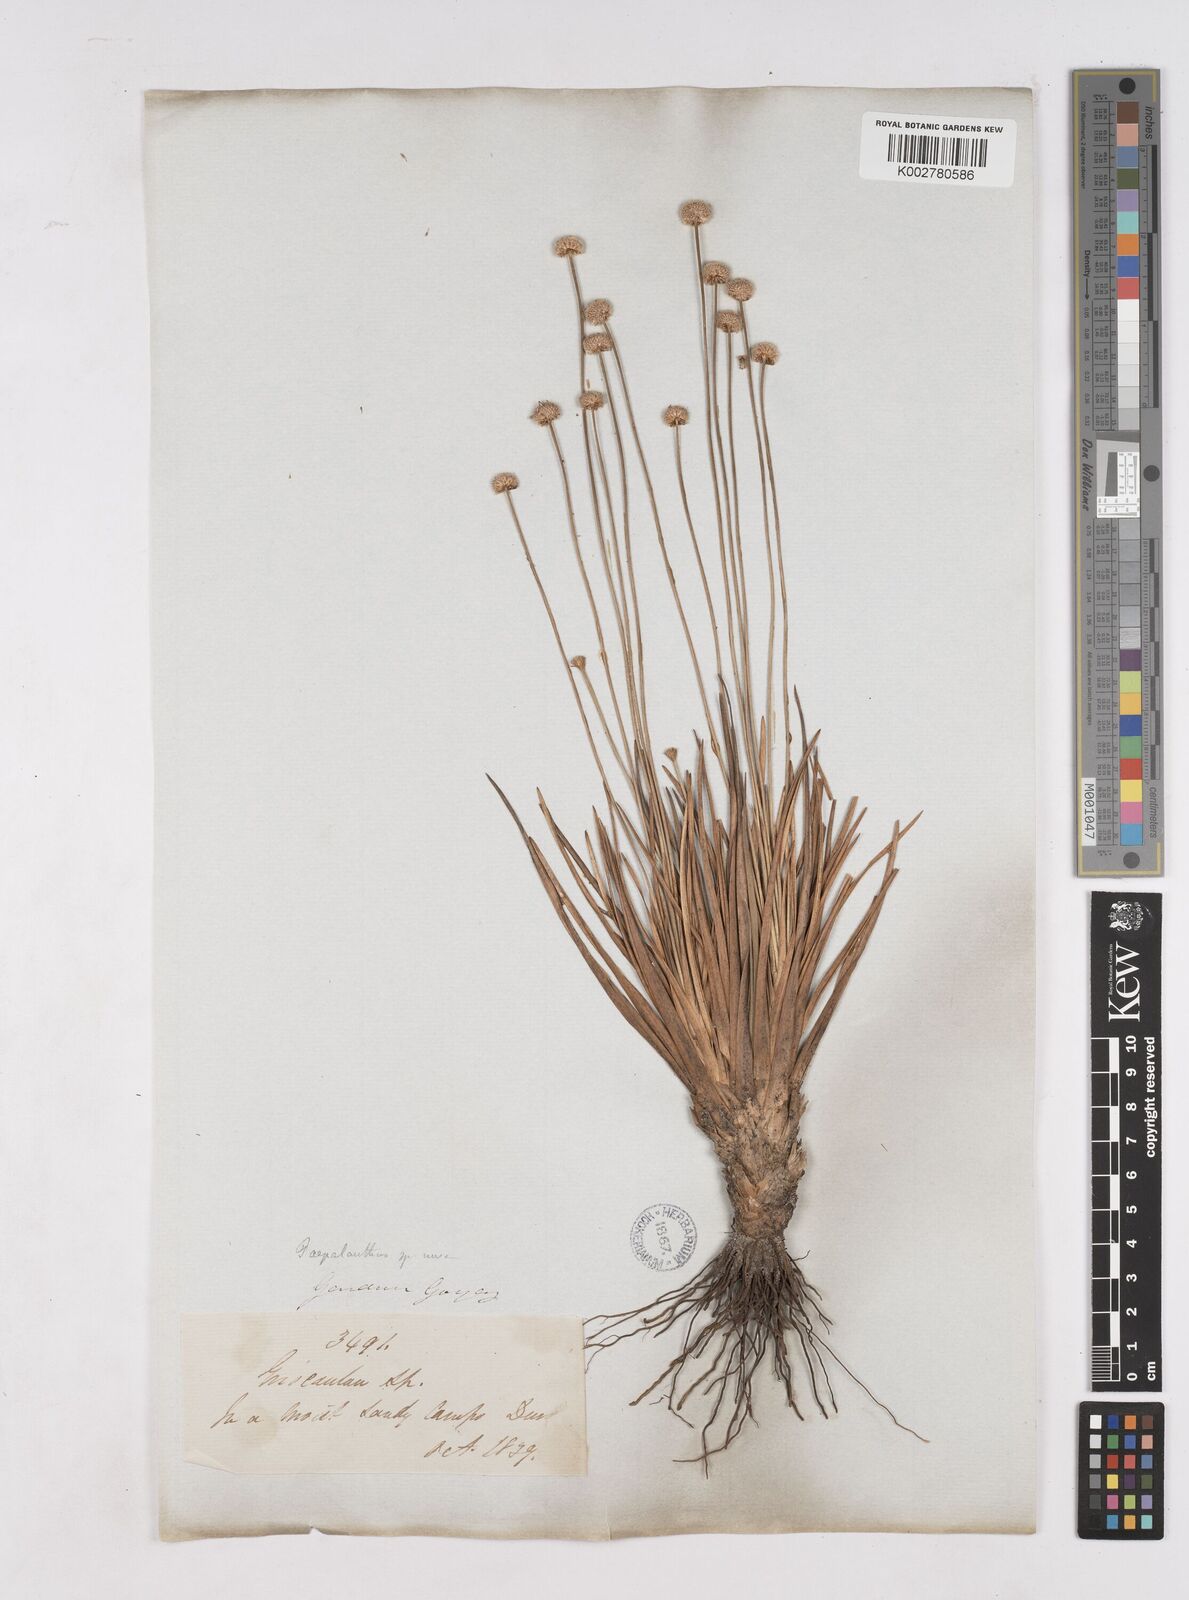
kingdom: Plantae
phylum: Tracheophyta
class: Liliopsida
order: Poales
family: Eriocaulaceae
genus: Paepalanthus
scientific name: Paepalanthus
